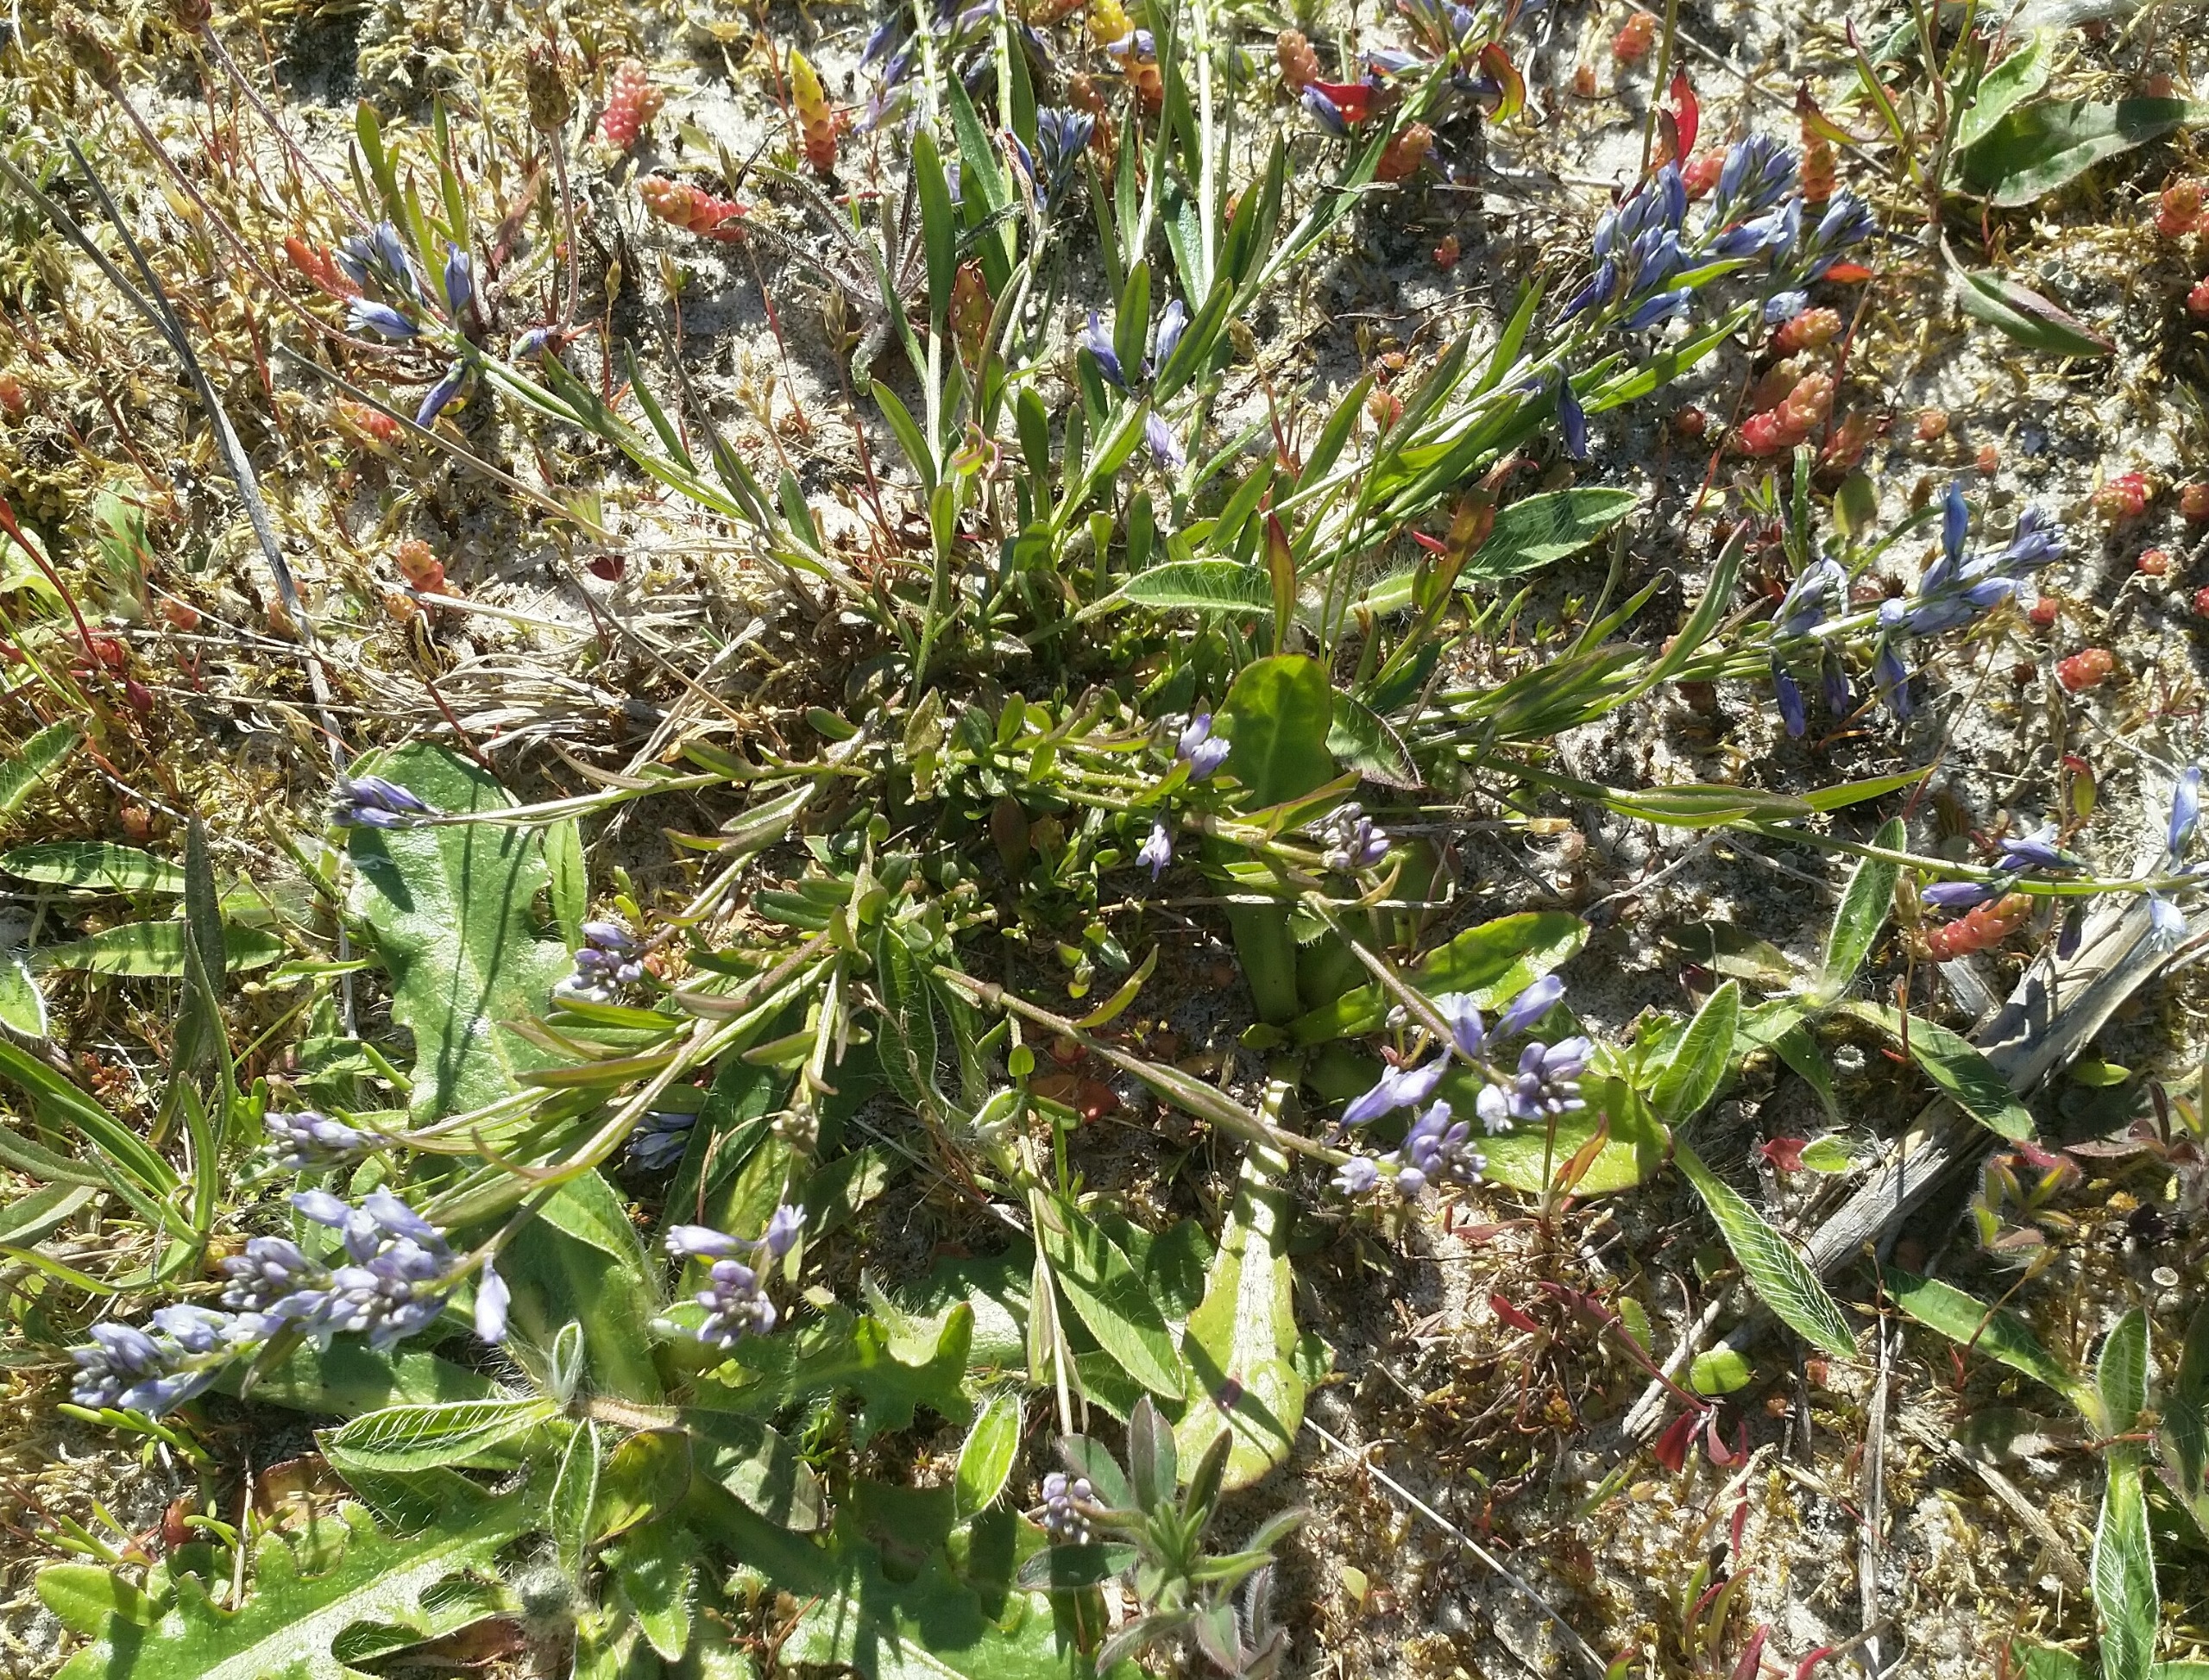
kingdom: Plantae
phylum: Tracheophyta
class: Magnoliopsida
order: Fabales
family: Polygalaceae
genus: Polygala
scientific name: Polygala vulgaris
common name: Almindelig mælkeurt
